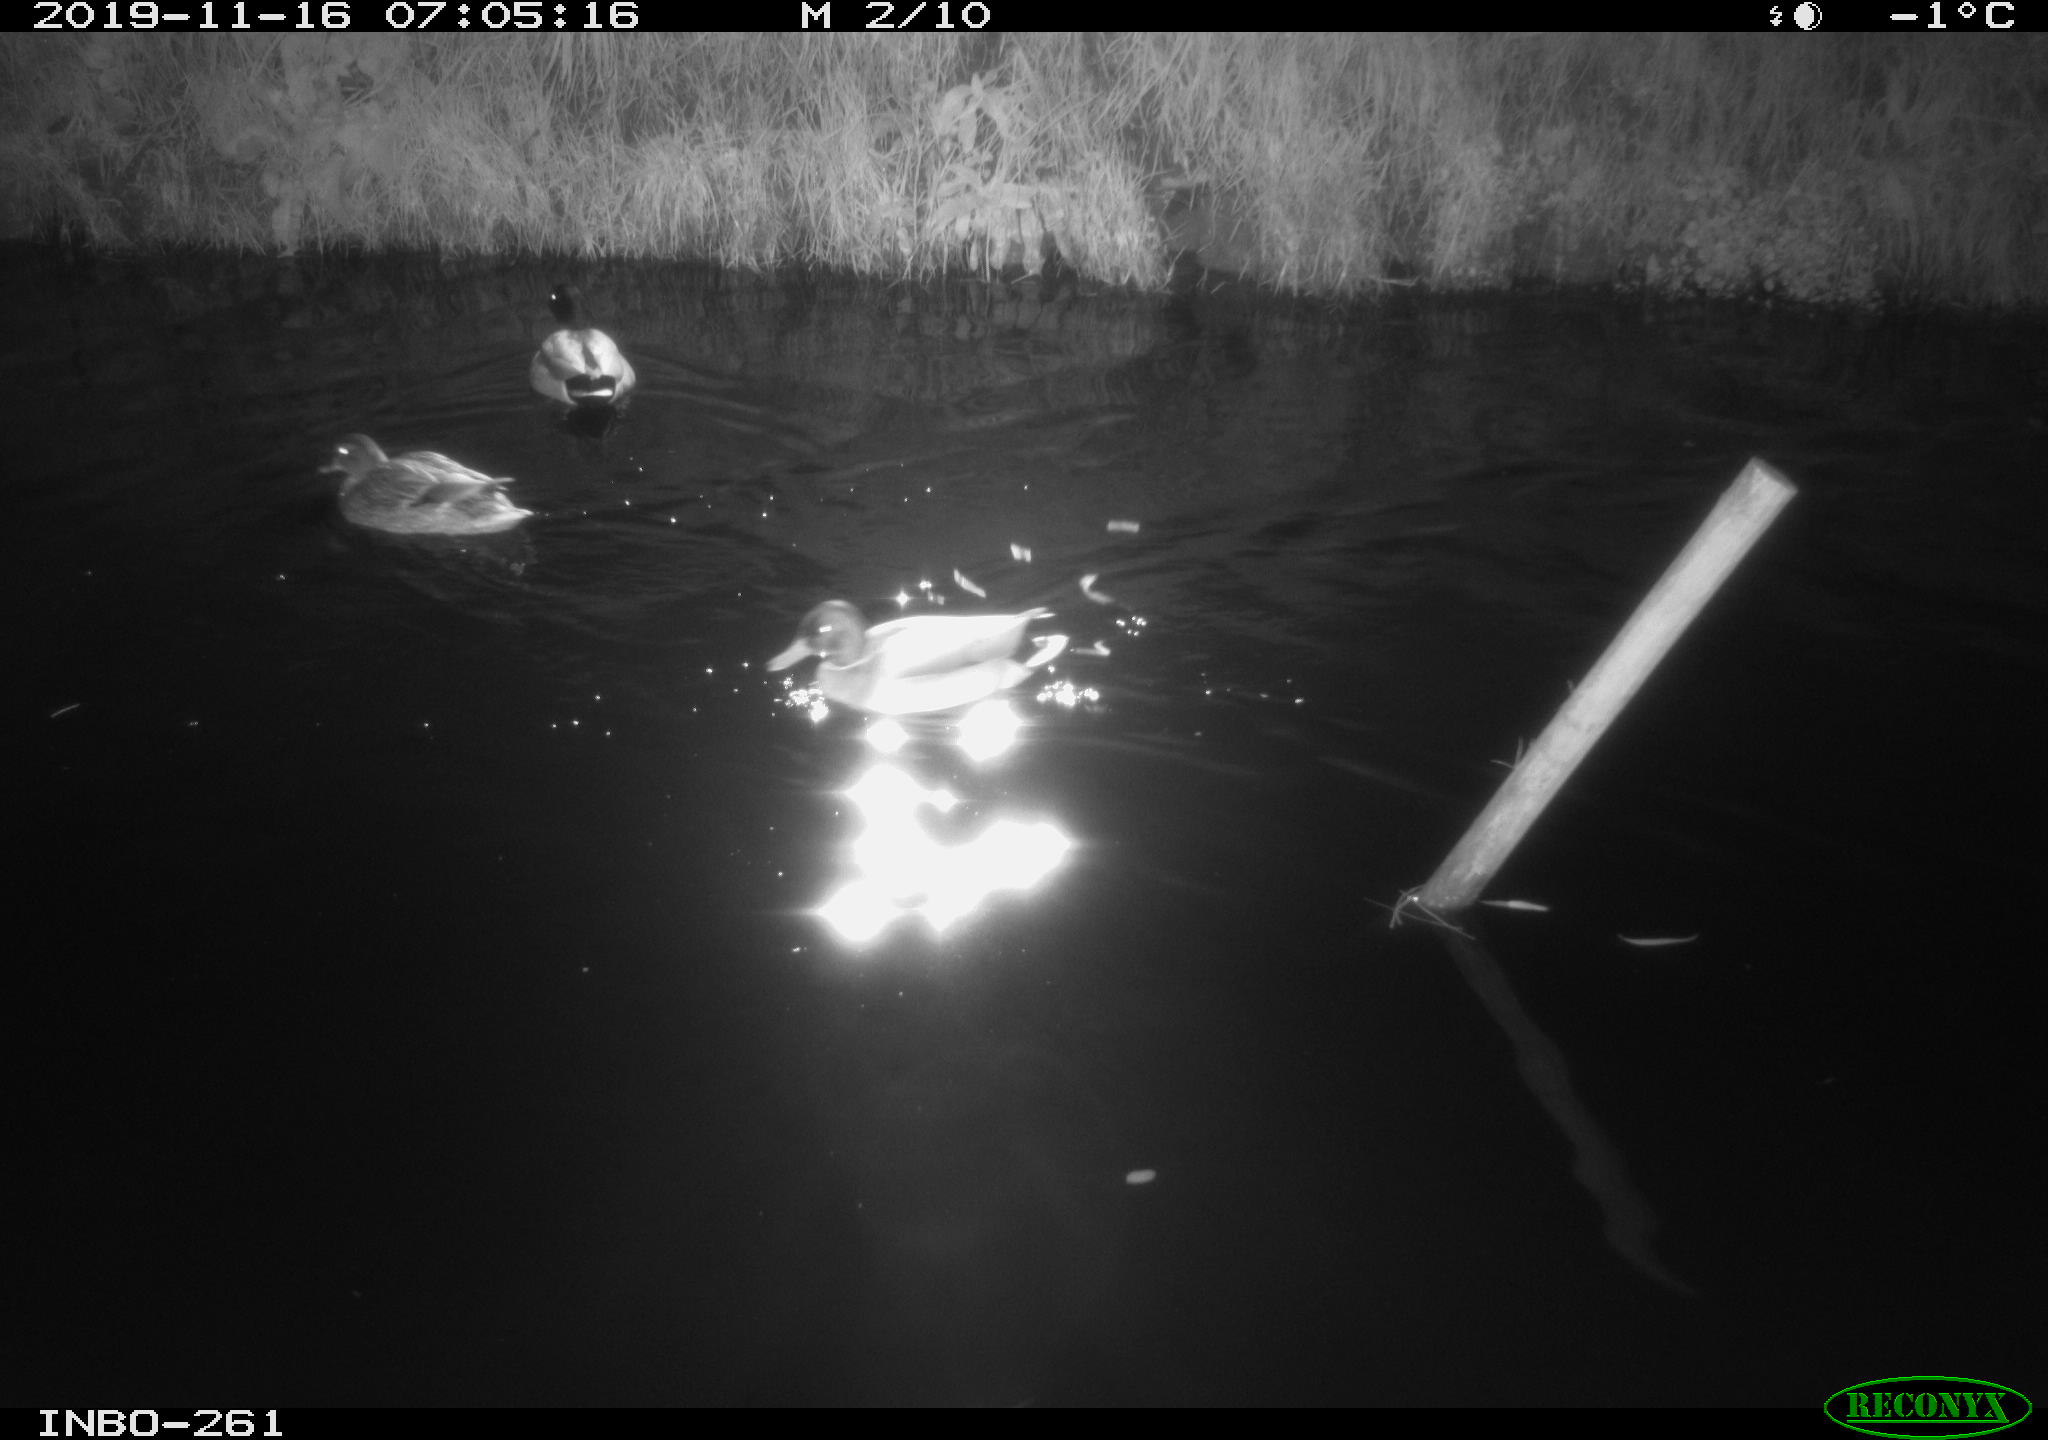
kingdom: Animalia
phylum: Chordata
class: Aves
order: Anseriformes
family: Anatidae
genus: Anas
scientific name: Anas platyrhynchos
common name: Mallard
